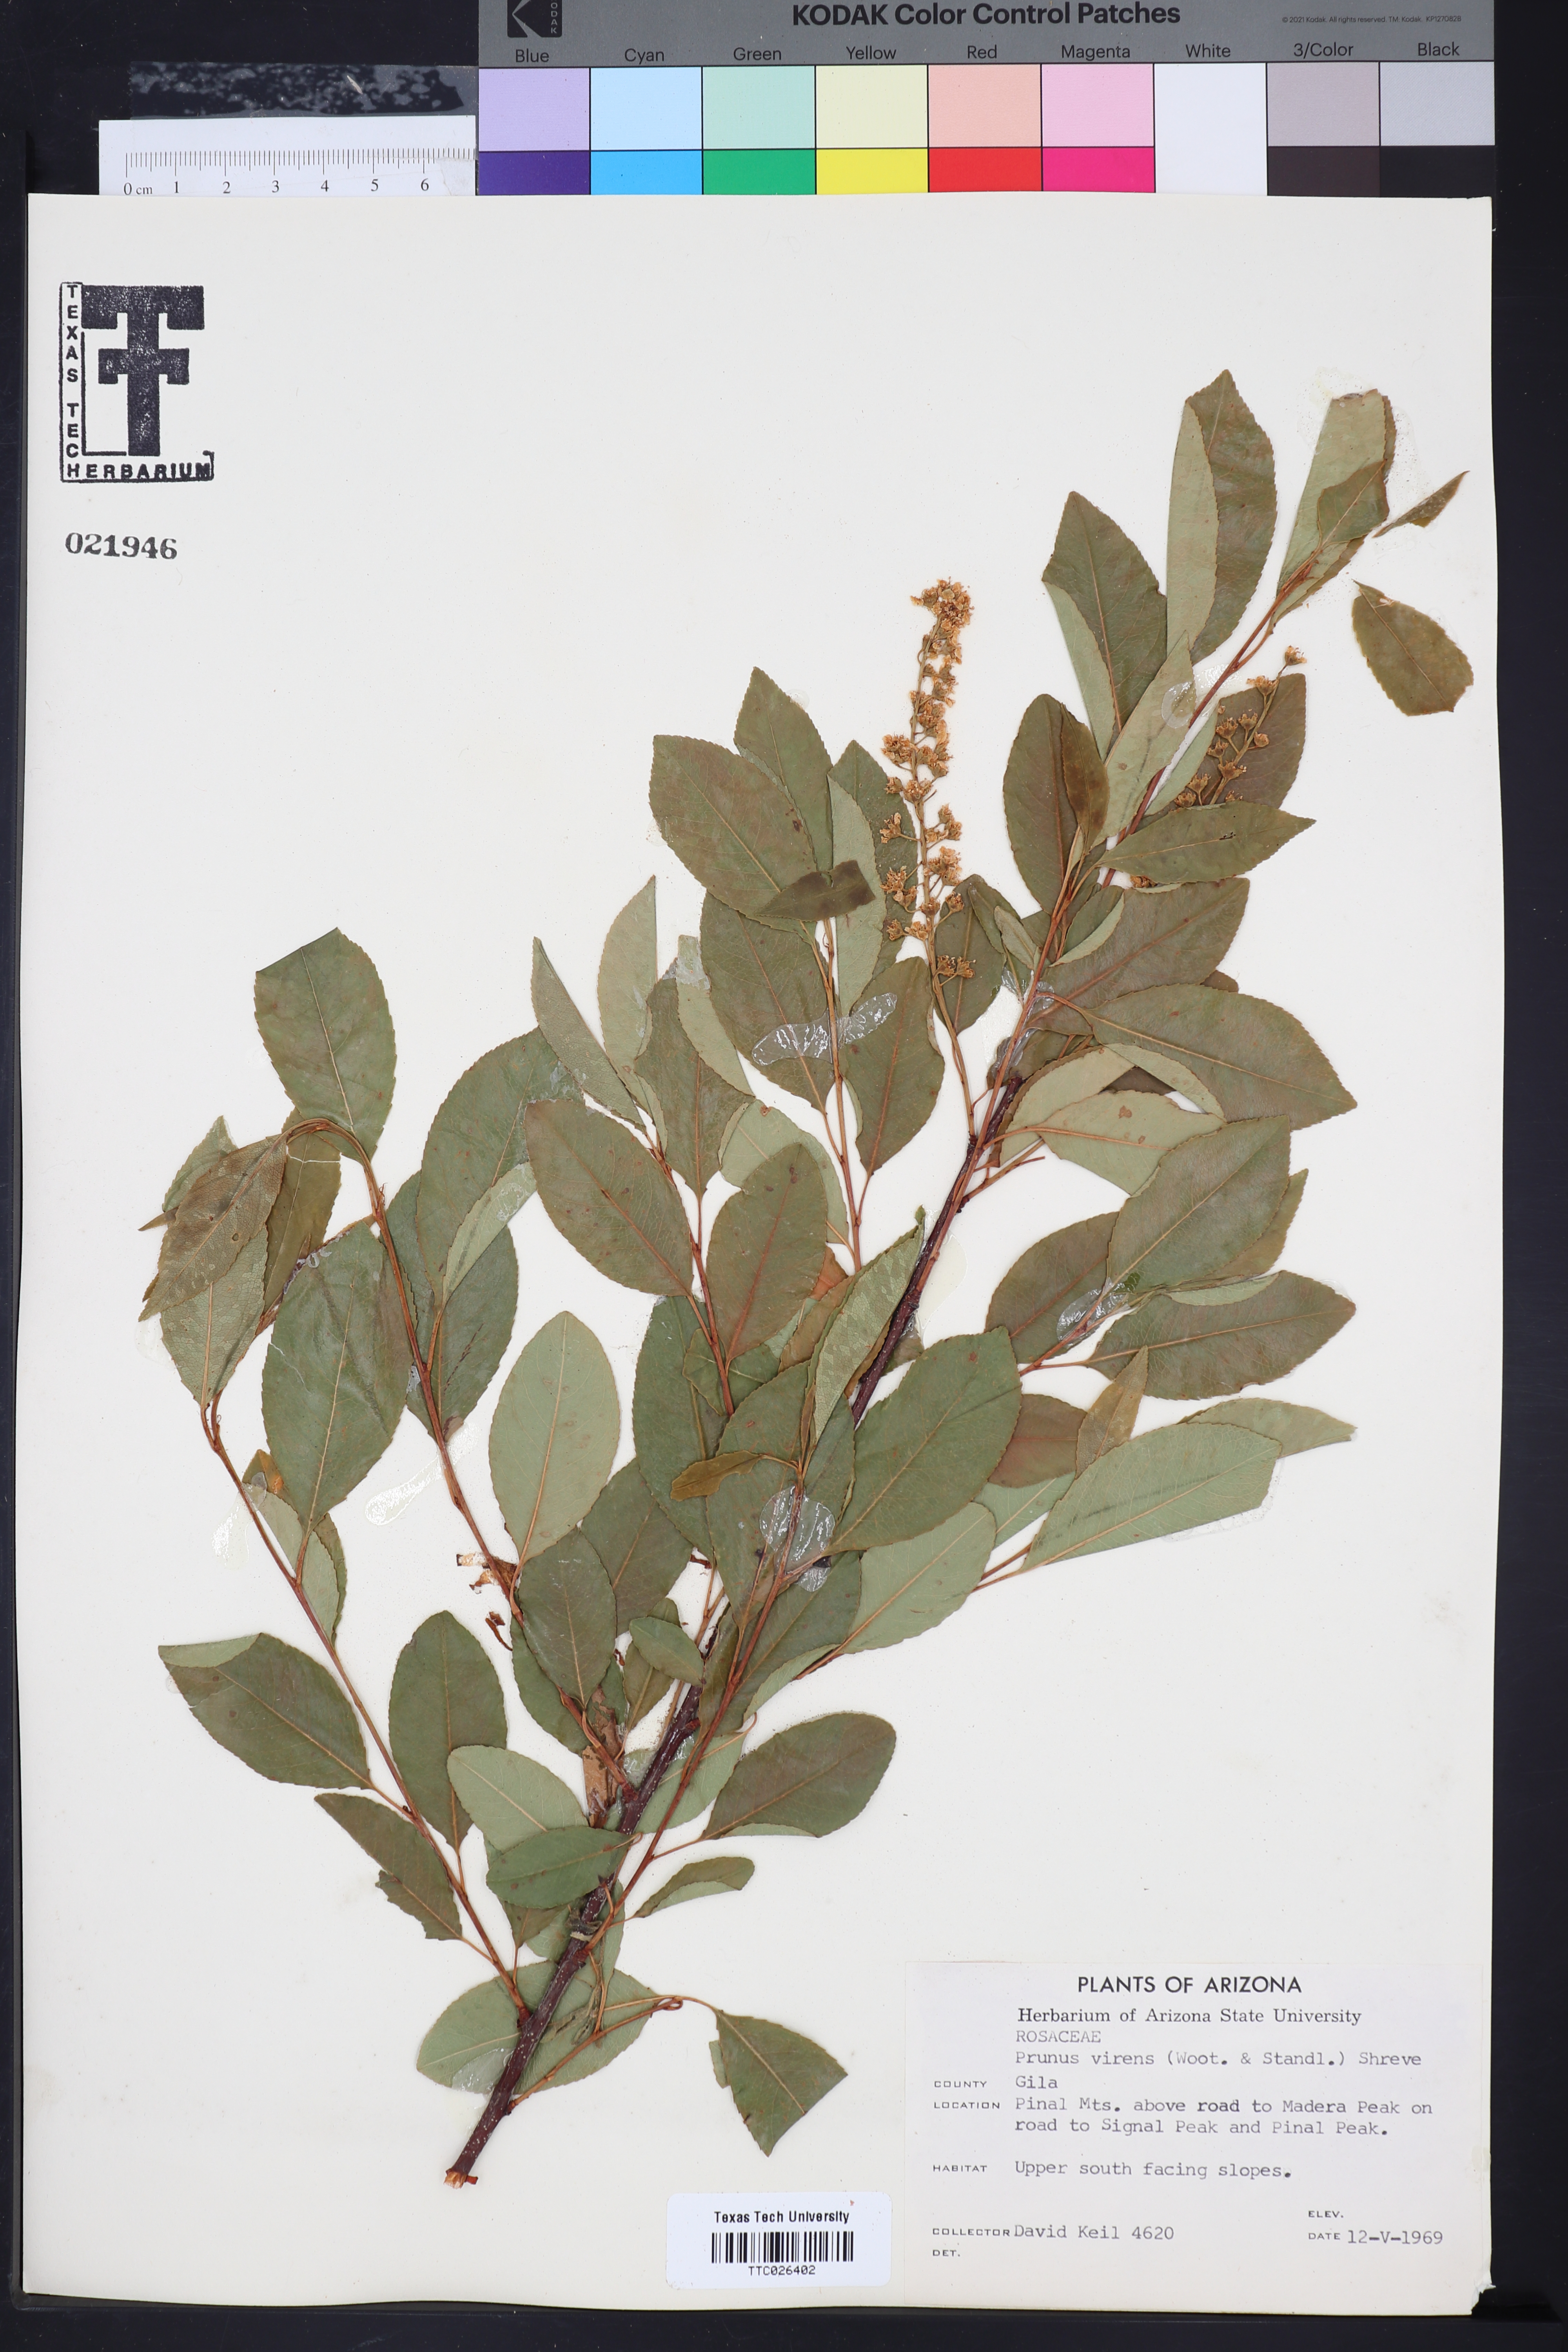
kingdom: Plantae
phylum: Tracheophyta
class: Magnoliopsida
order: Rosales
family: Rosaceae
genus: Prunus
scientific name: Prunus serotina
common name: Black cherry
